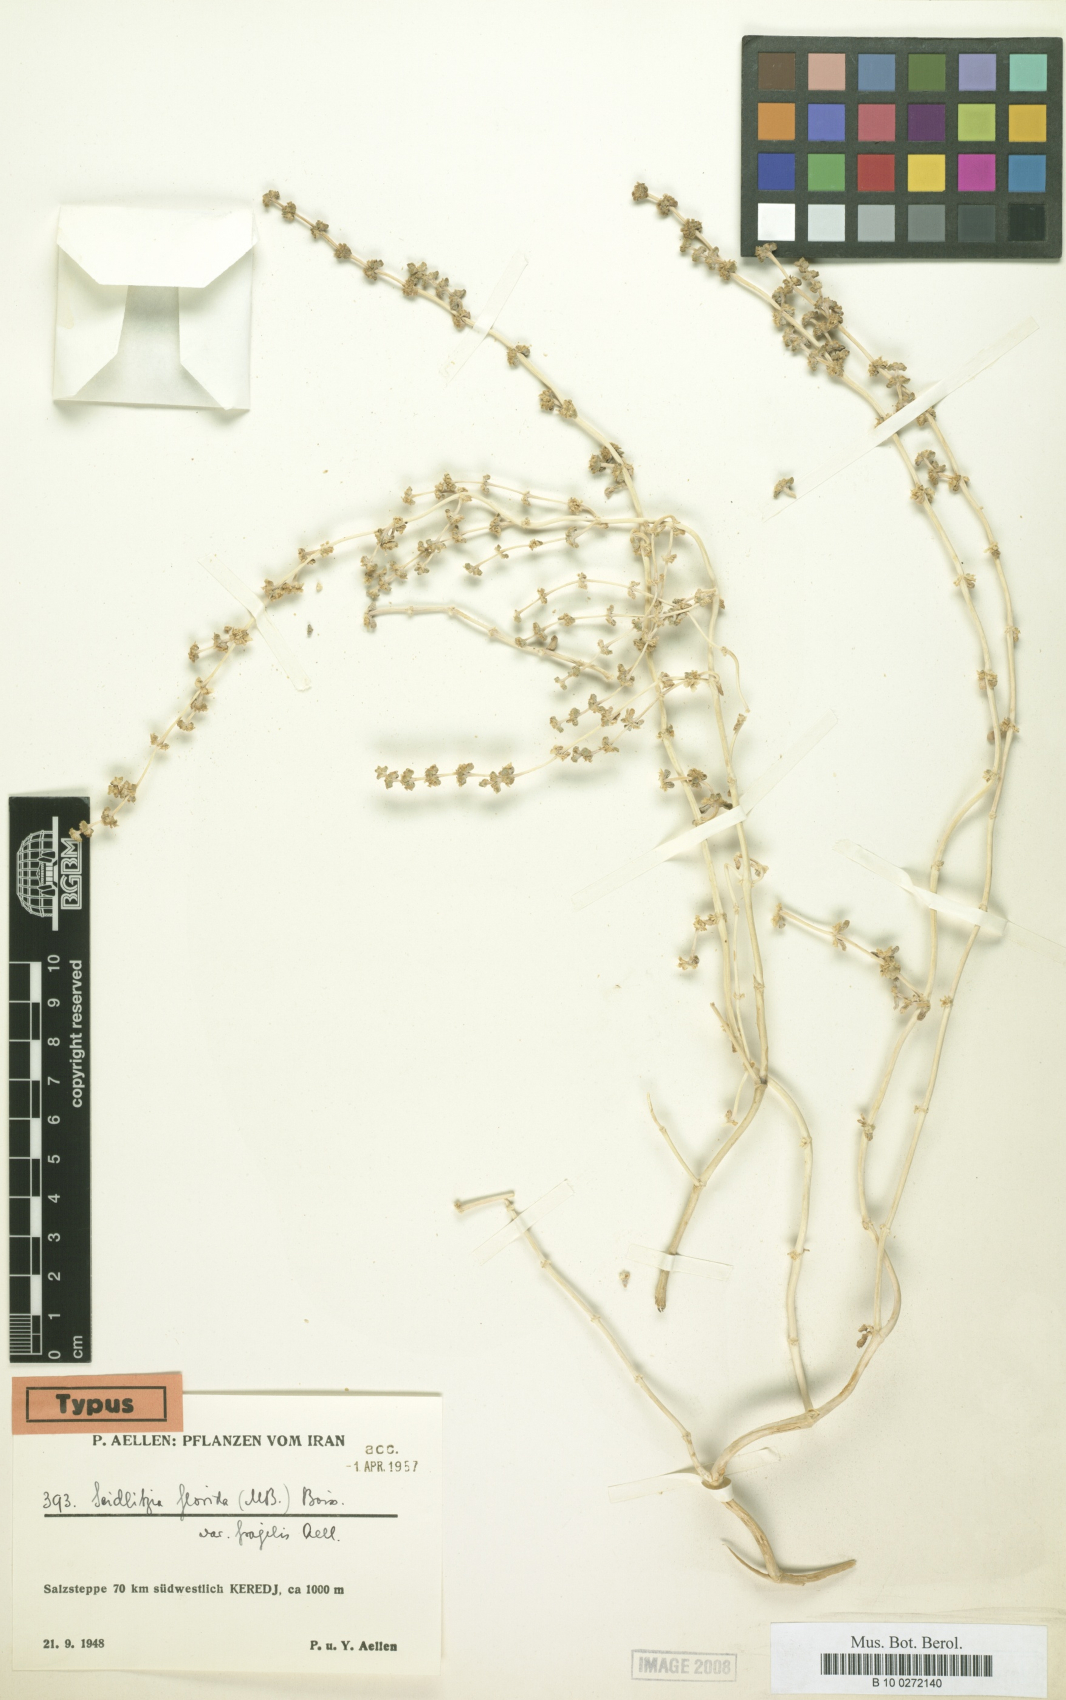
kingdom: Plantae
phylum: Tracheophyta
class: Magnoliopsida
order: Caryophyllales
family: Amaranthaceae
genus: Soda
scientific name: Soda florida
